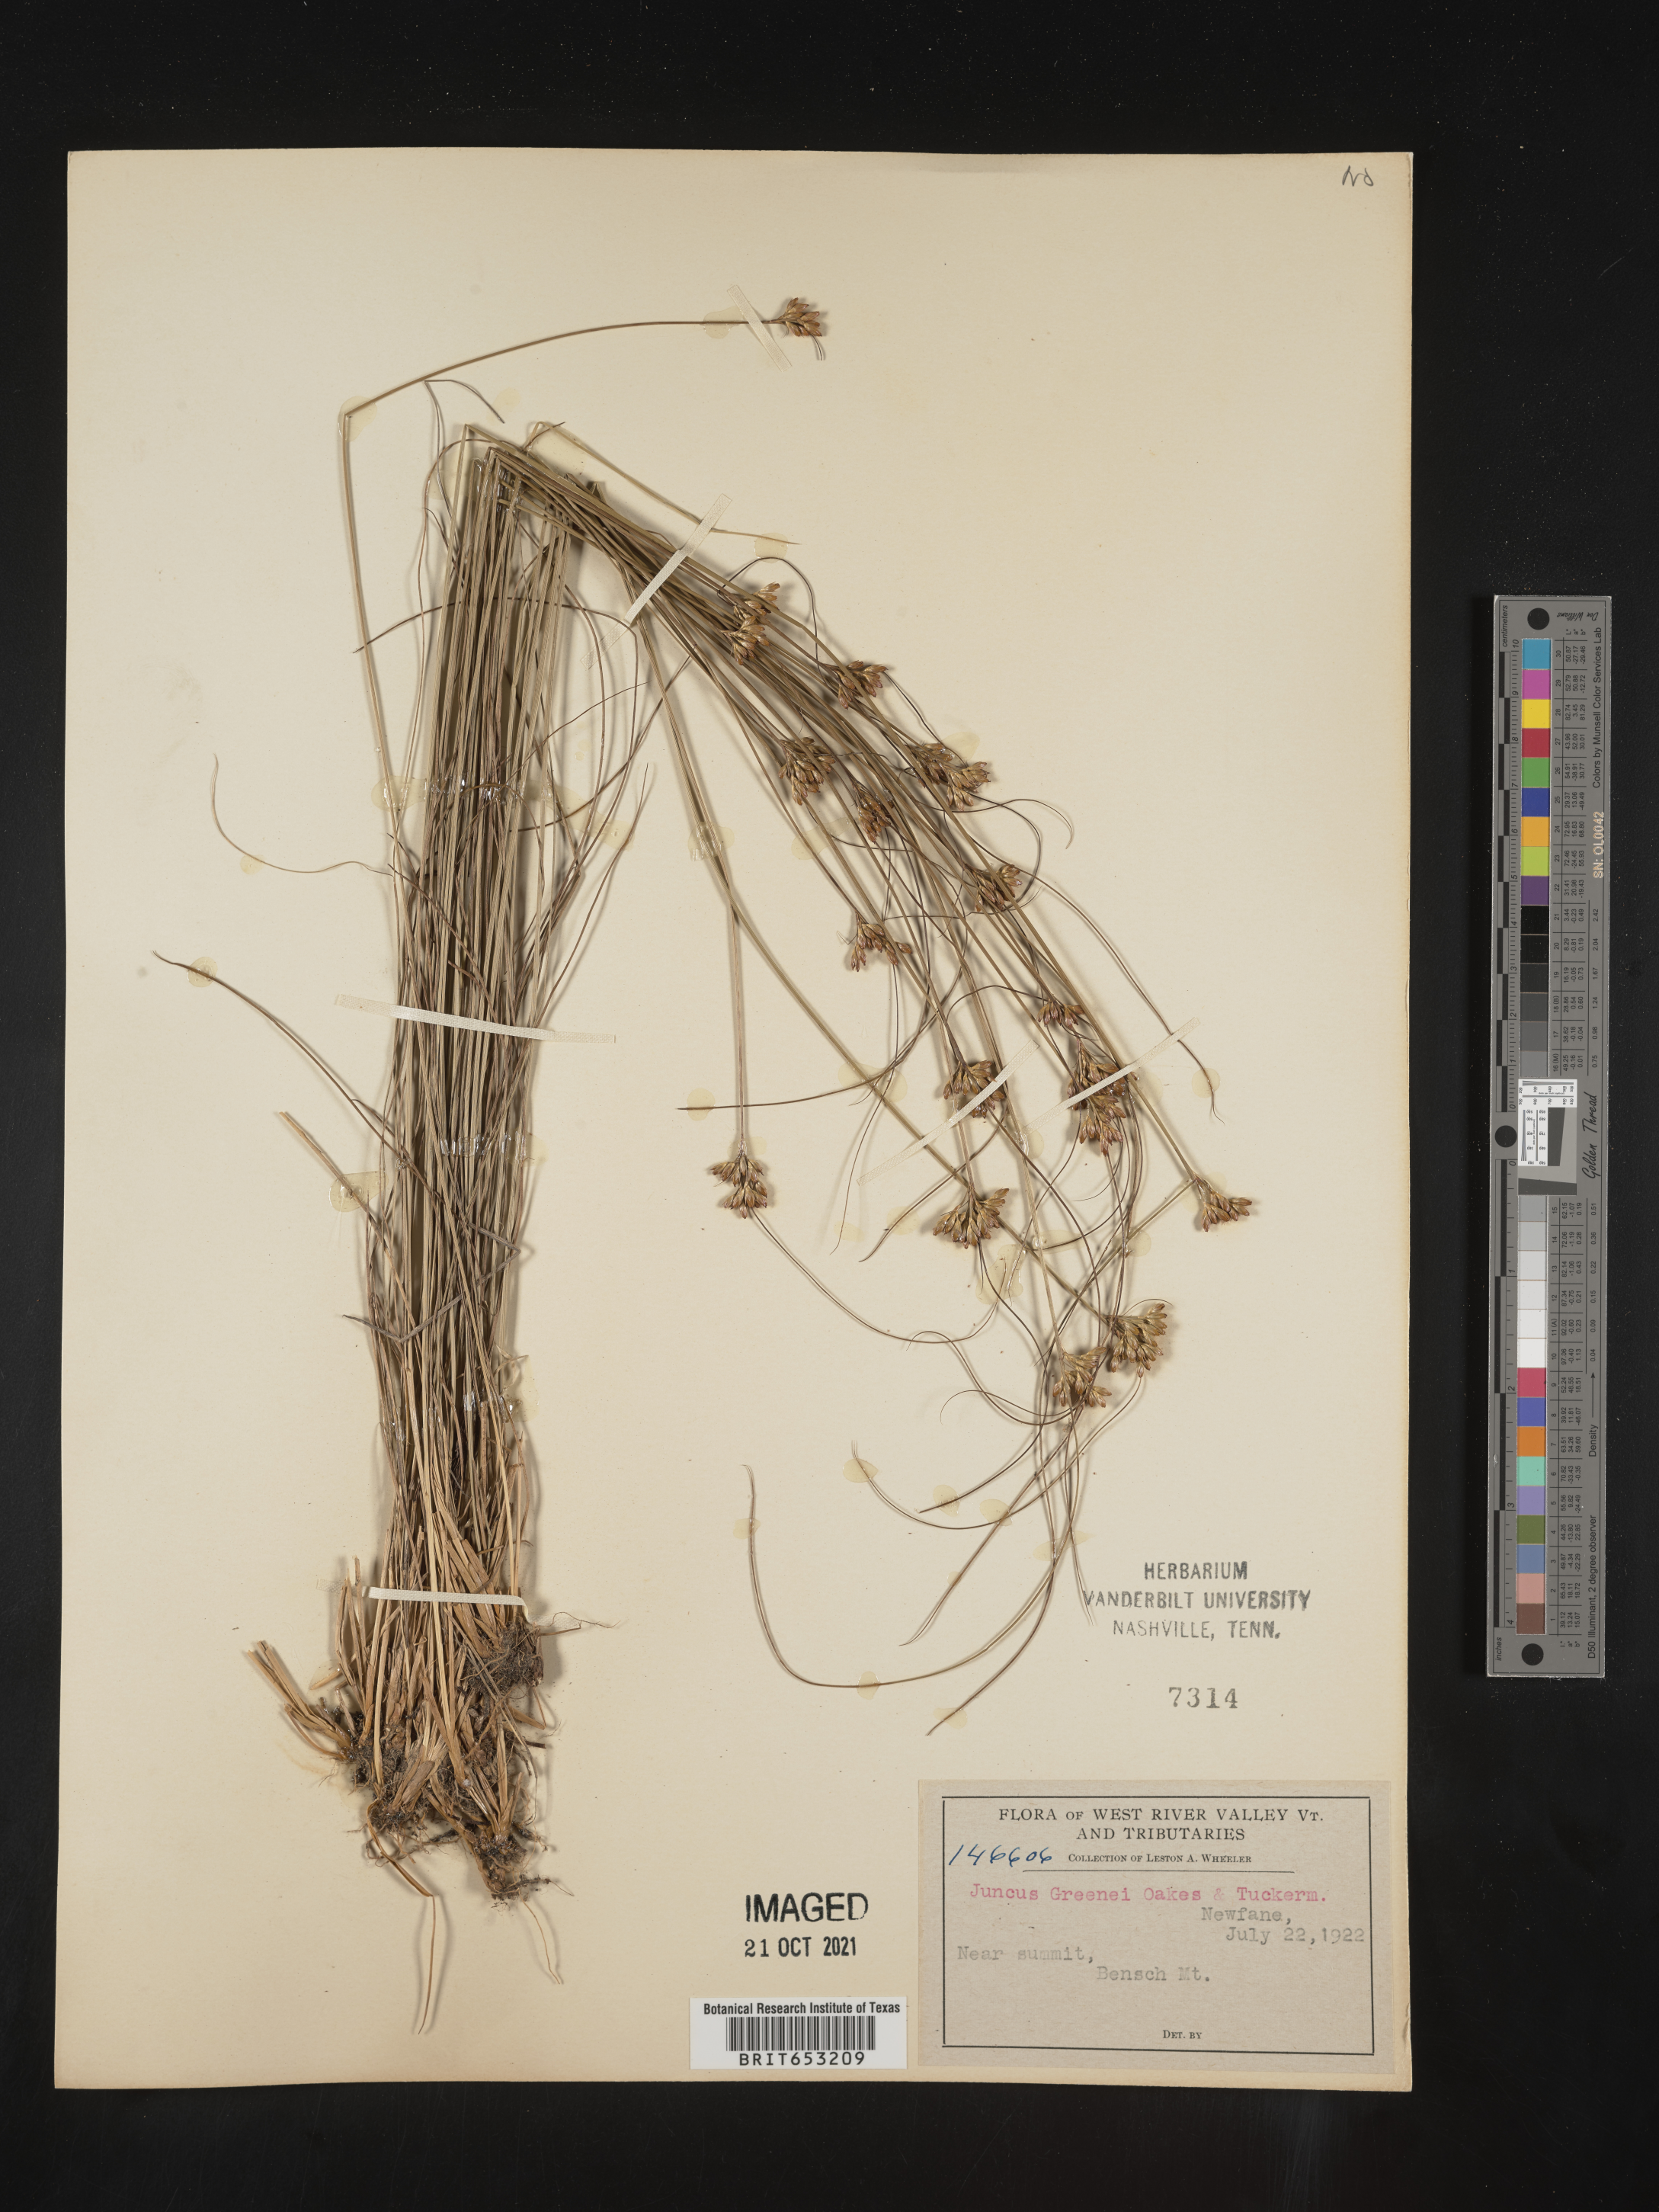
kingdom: Plantae
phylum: Tracheophyta
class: Liliopsida
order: Poales
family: Juncaceae
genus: Juncus
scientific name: Juncus greenei
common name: Greene's rush
